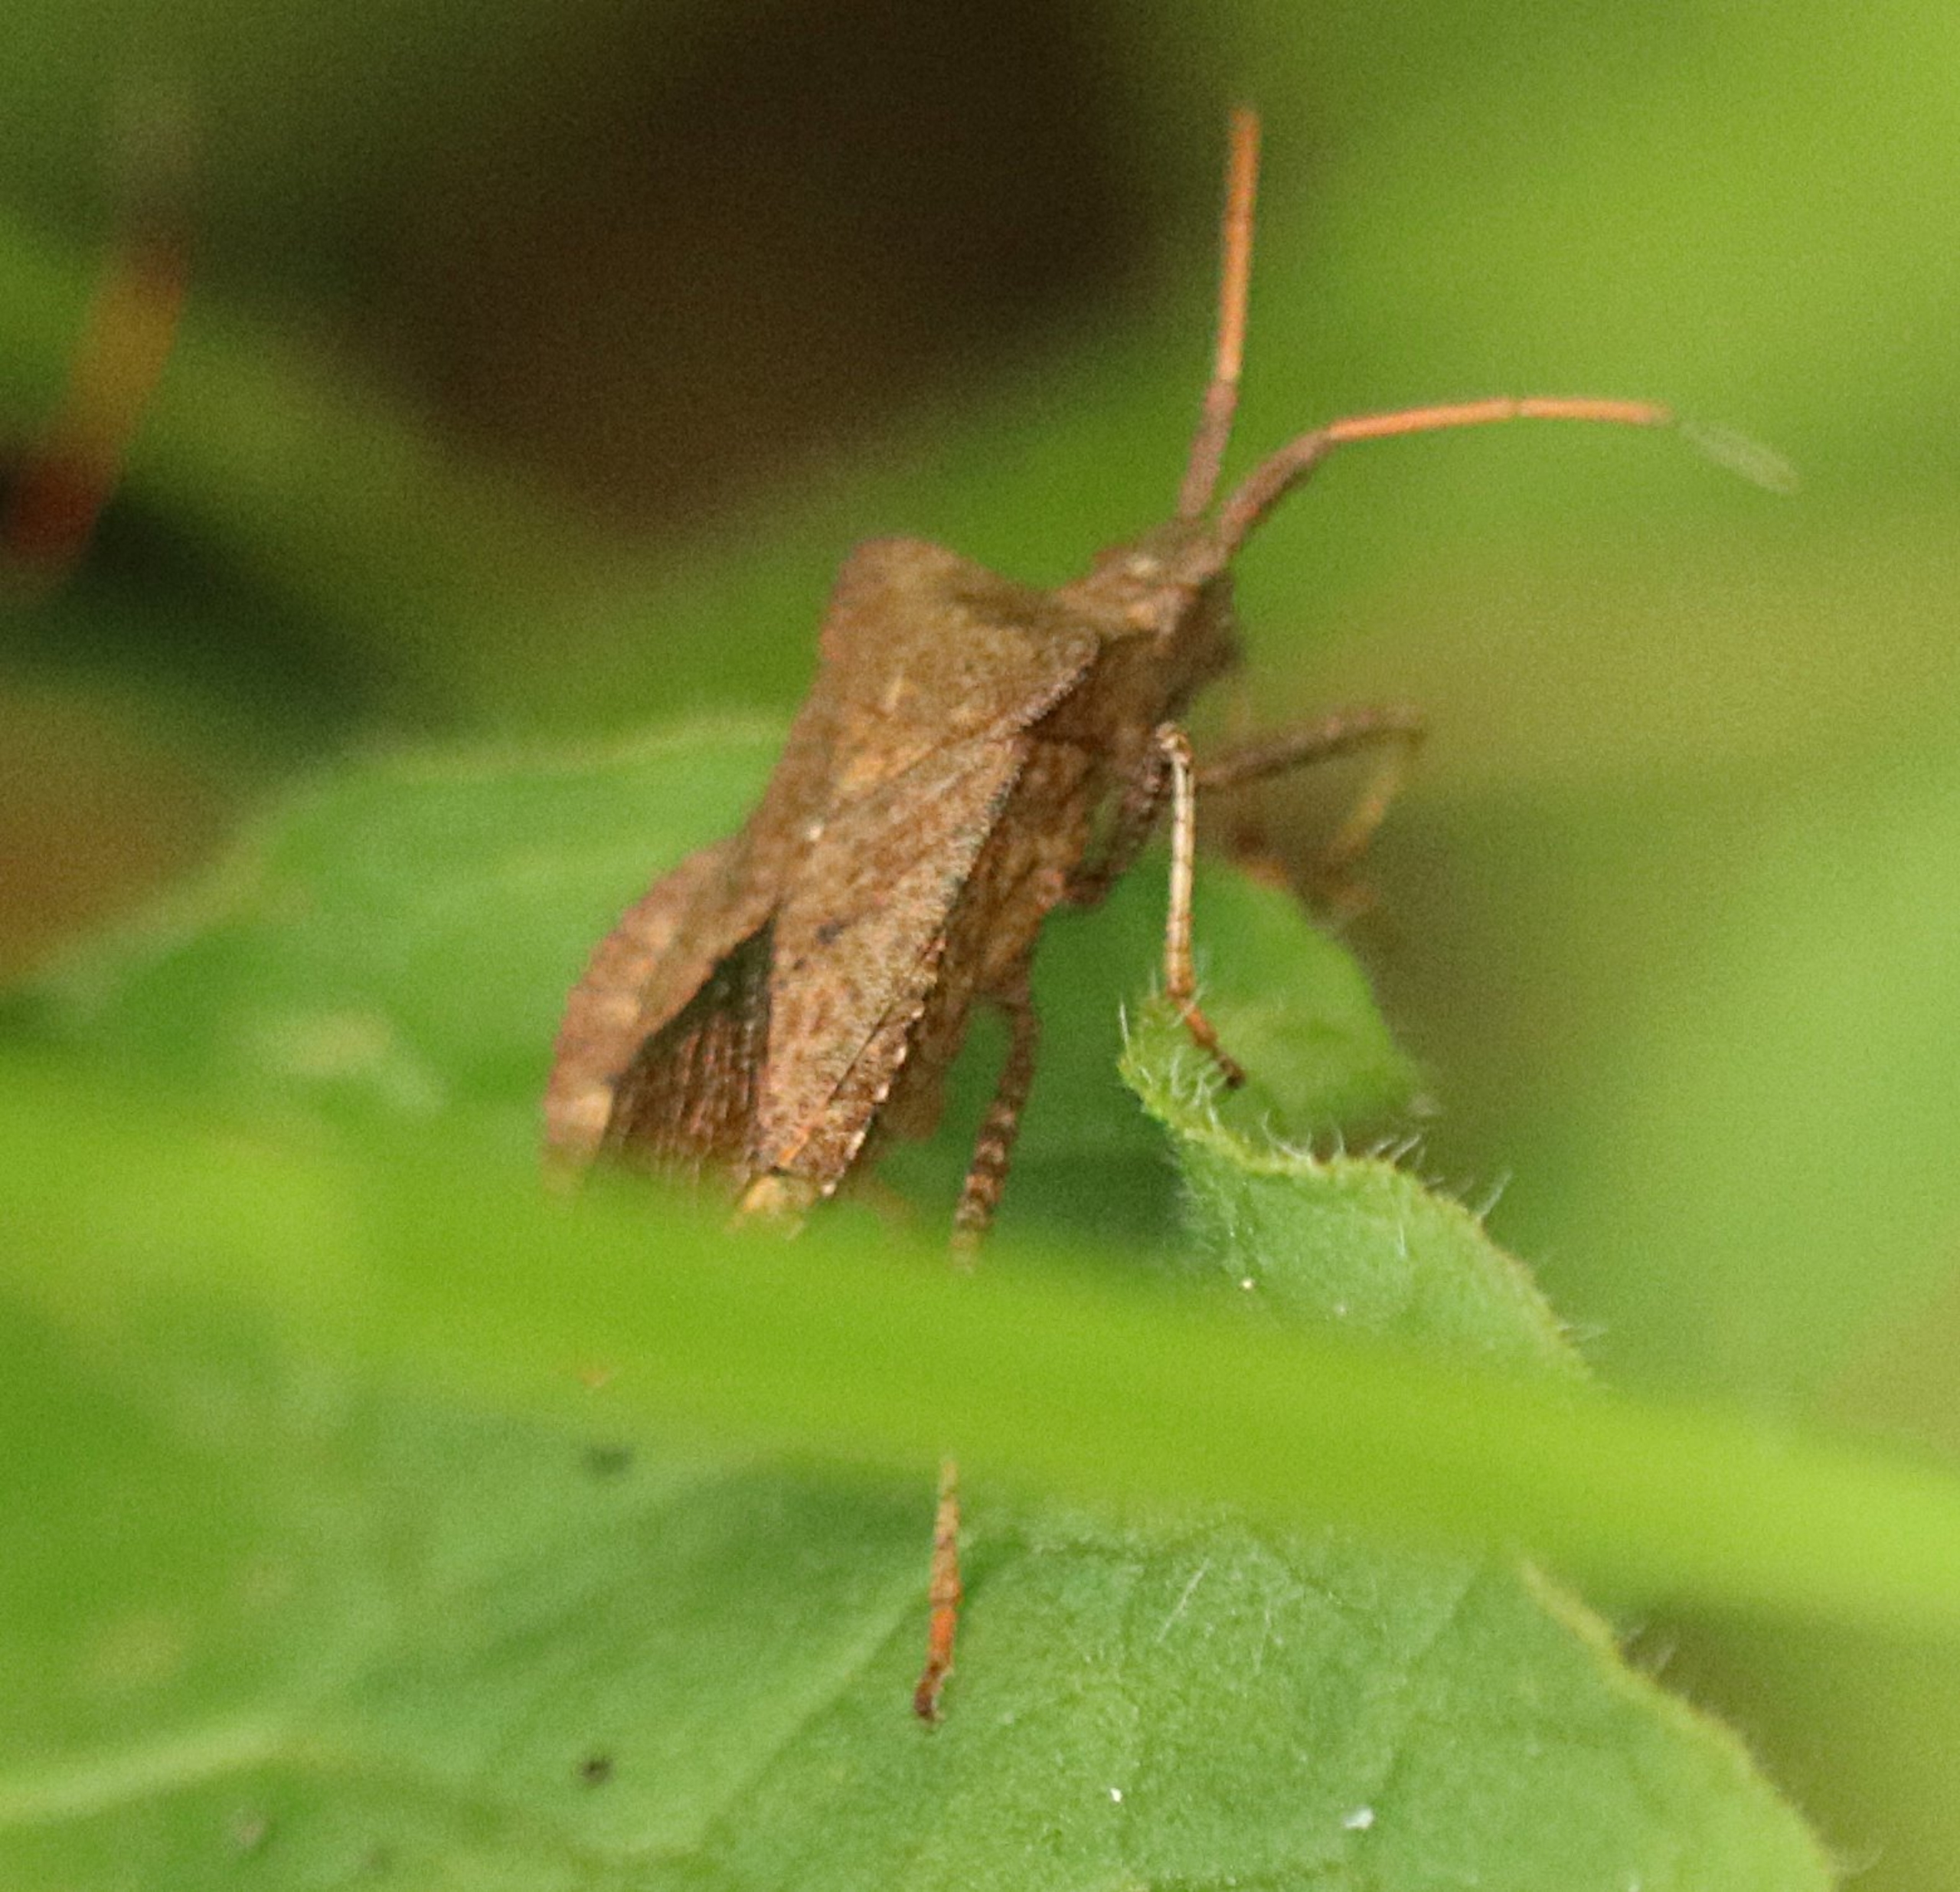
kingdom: Animalia
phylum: Arthropoda
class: Insecta
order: Hemiptera
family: Coreidae
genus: Coreus
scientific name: Coreus marginatus
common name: Skræppetæge
